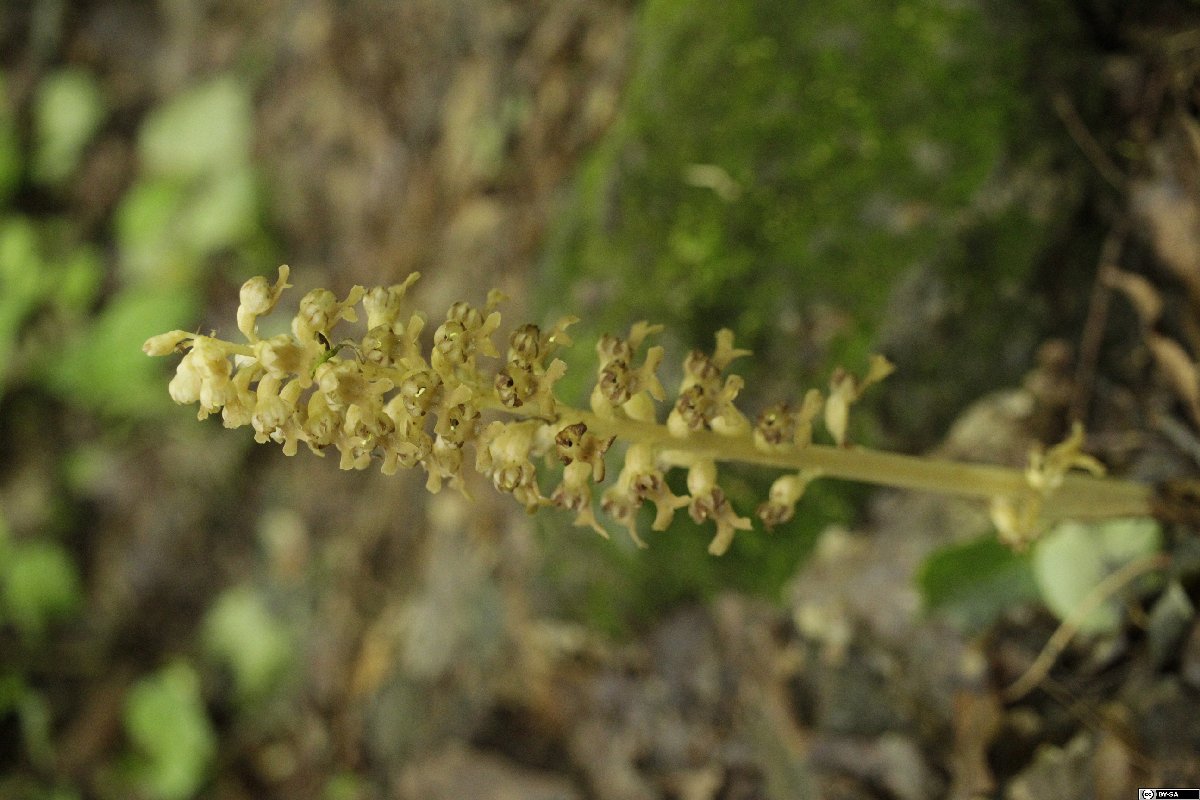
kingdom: Plantae
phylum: Tracheophyta
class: Liliopsida
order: Asparagales
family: Orchidaceae
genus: Neottia
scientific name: Neottia nidus-avis
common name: Bird's-nest orchid
